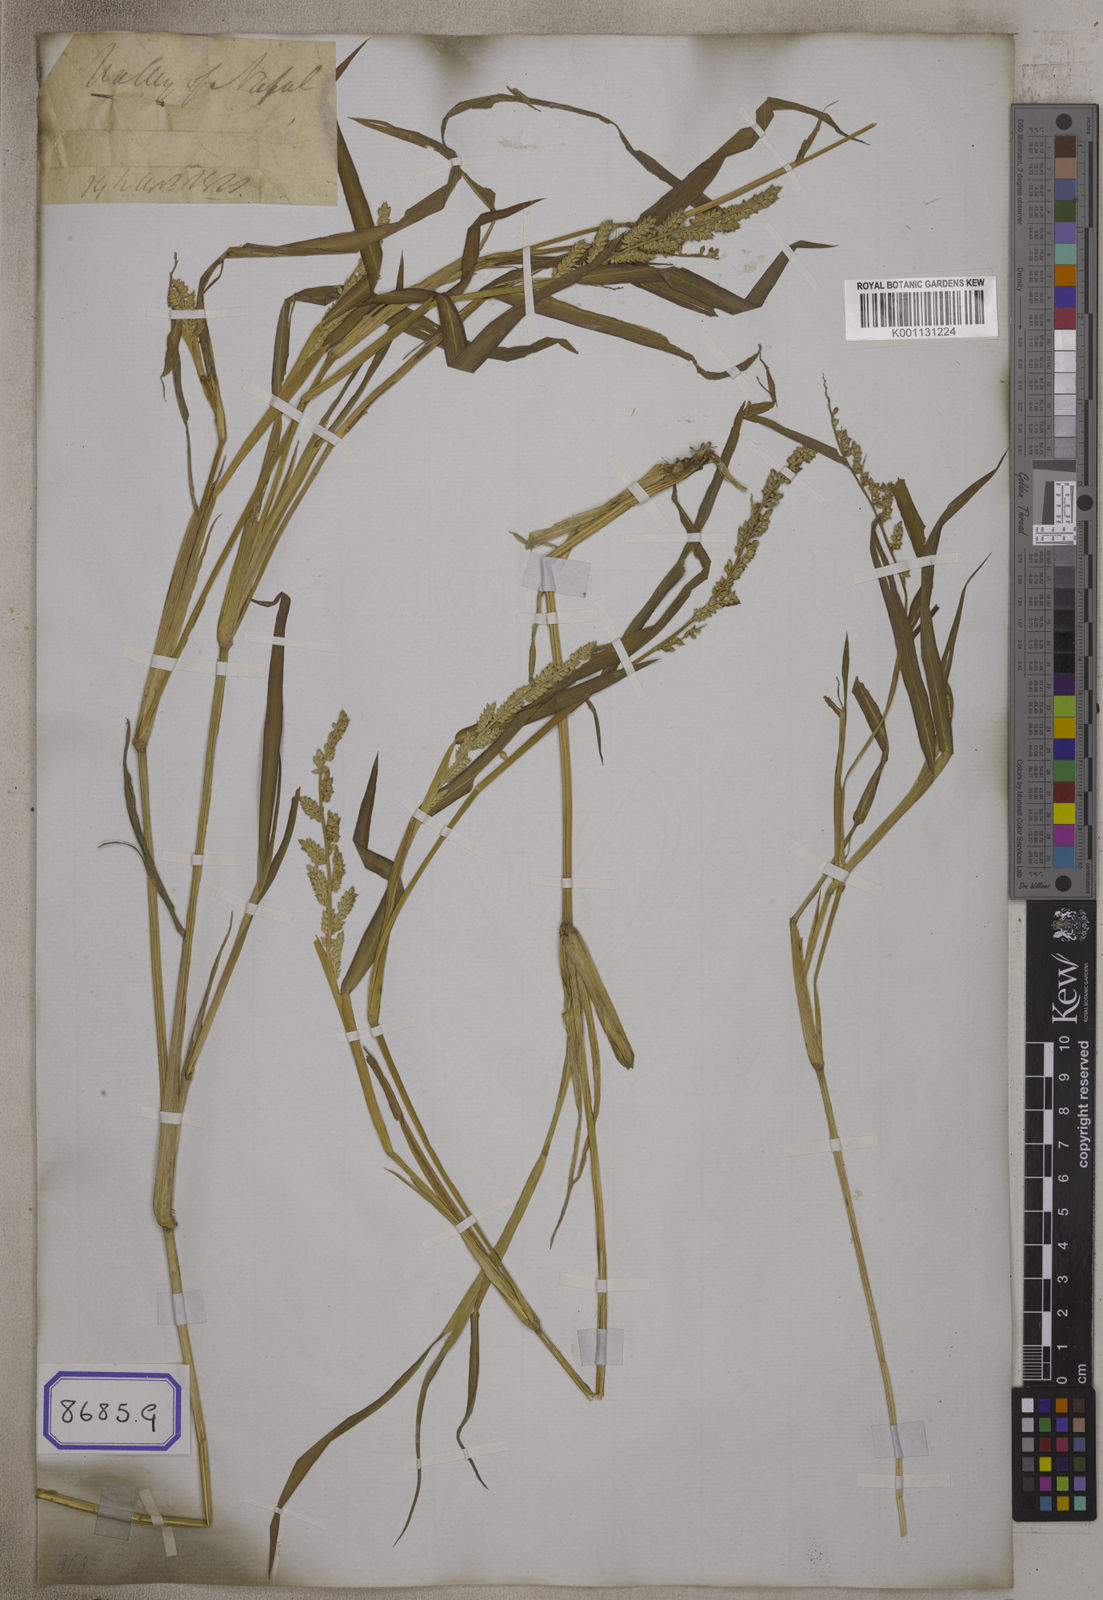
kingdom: Plantae
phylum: Tracheophyta
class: Liliopsida
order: Poales
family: Poaceae
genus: Echinochloa
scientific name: Echinochloa colonum
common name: Jungle rice
